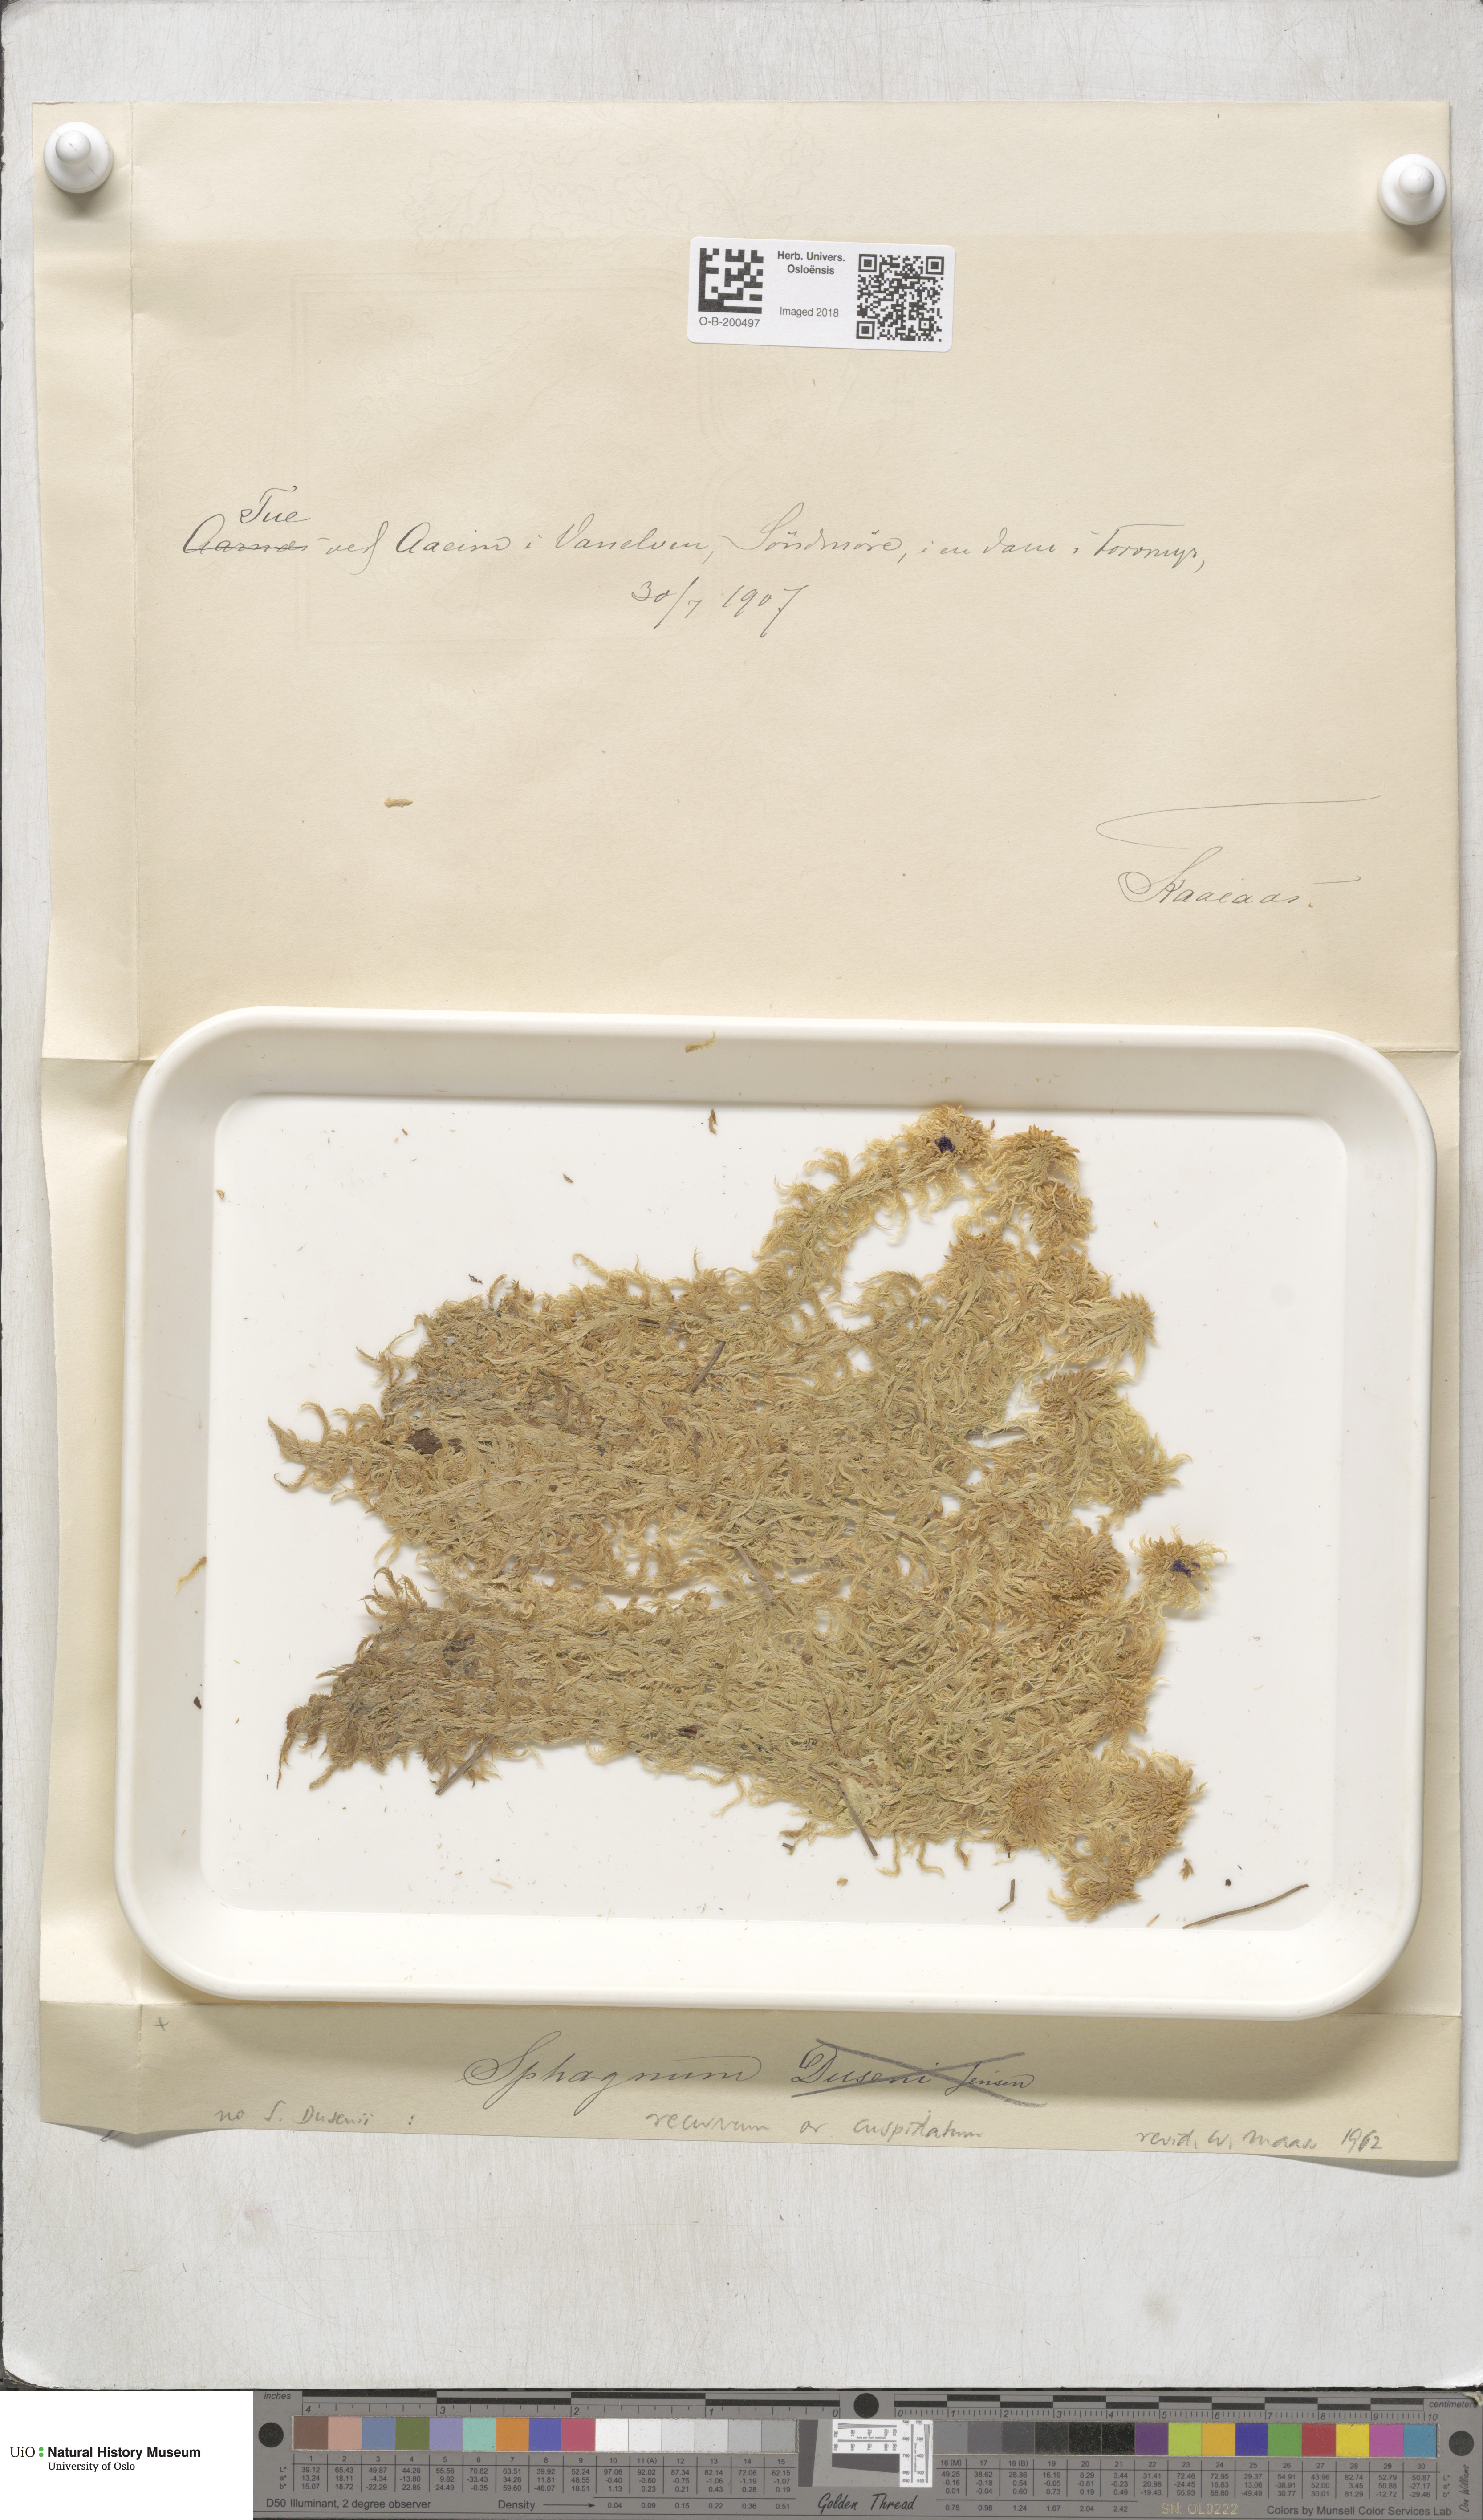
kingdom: Plantae
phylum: Bryophyta
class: Sphagnopsida
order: Sphagnales
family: Sphagnaceae
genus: Sphagnum
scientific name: Sphagnum fallax
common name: Flat-top peat moss
